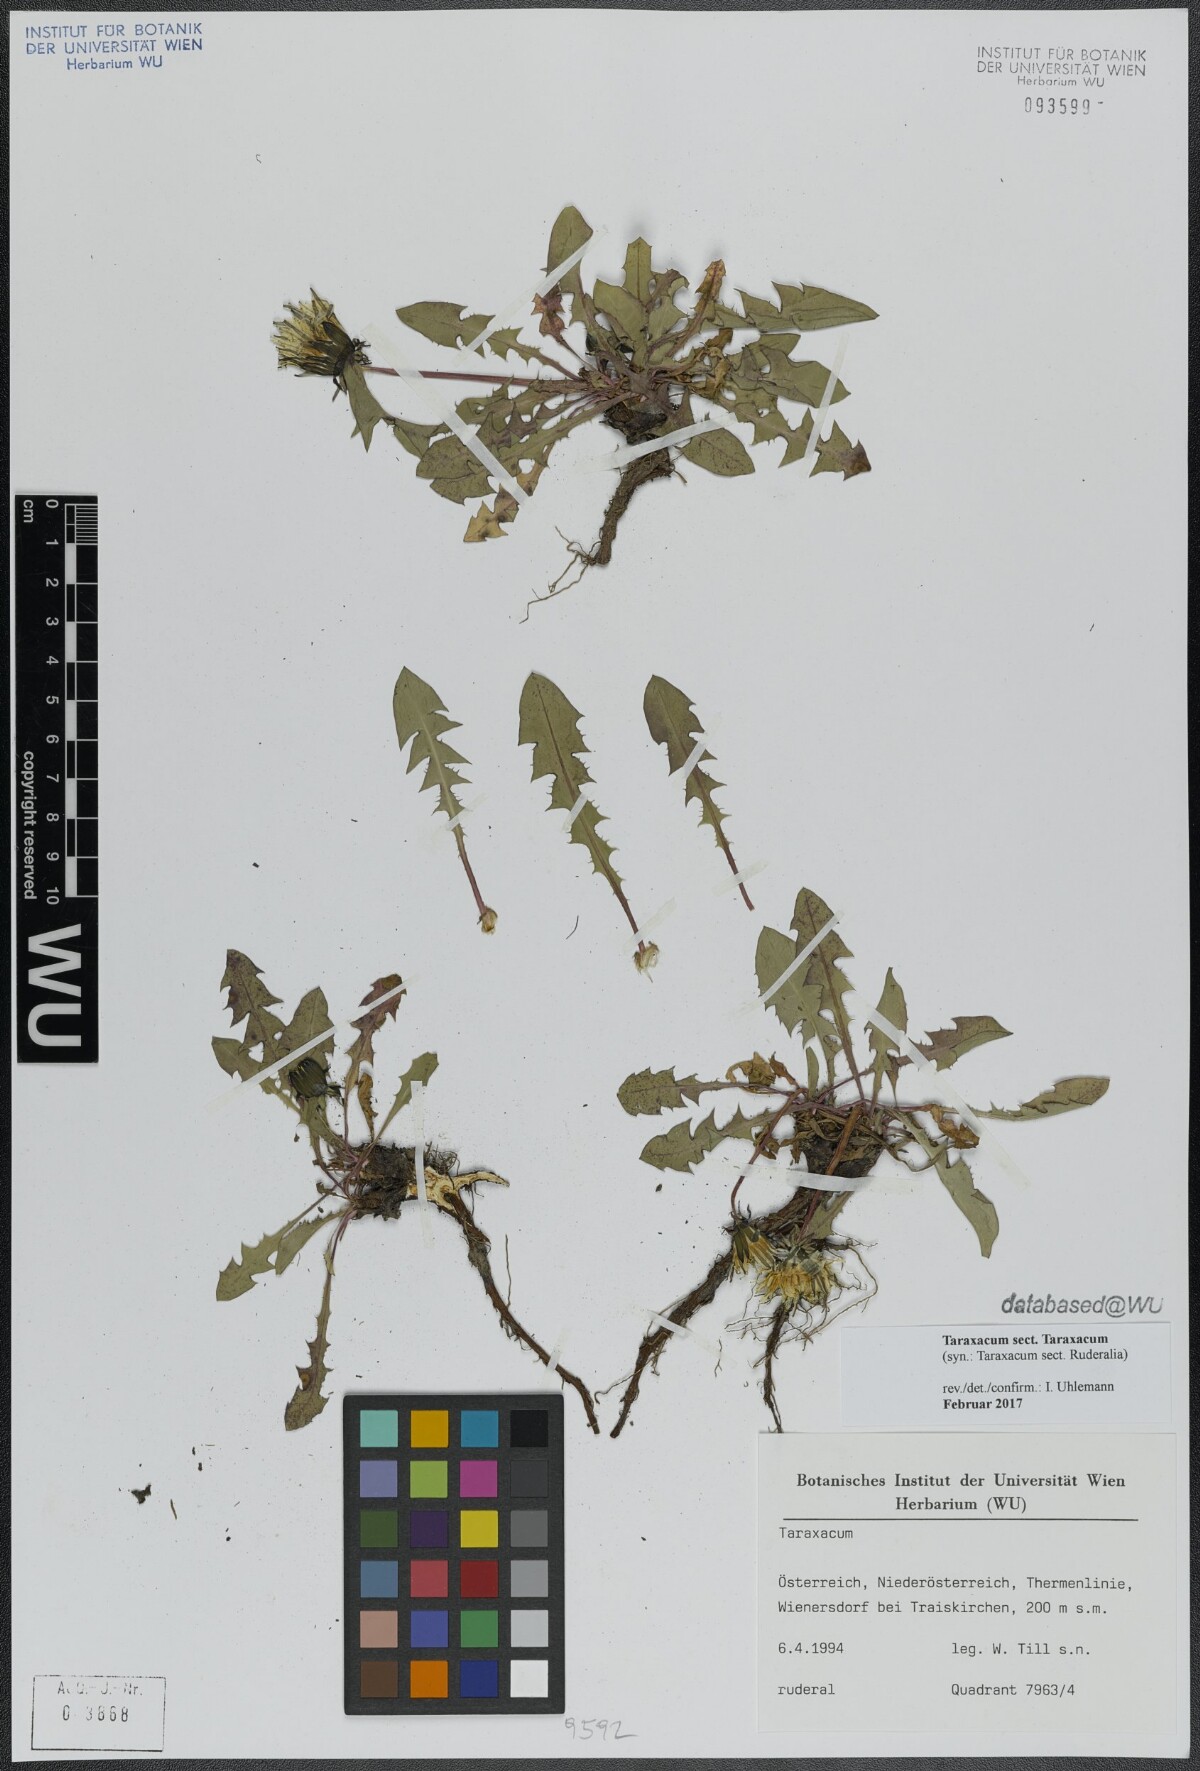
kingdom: Plantae
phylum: Tracheophyta
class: Magnoliopsida
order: Asterales
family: Asteraceae
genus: Taraxacum
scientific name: Taraxacum
